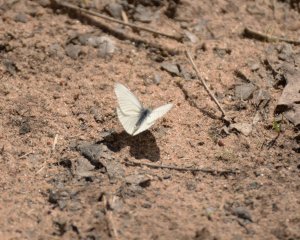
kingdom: Animalia
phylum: Arthropoda
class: Insecta
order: Lepidoptera
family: Pieridae
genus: Pieris
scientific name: Pieris virginiensis
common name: West Virginia White
